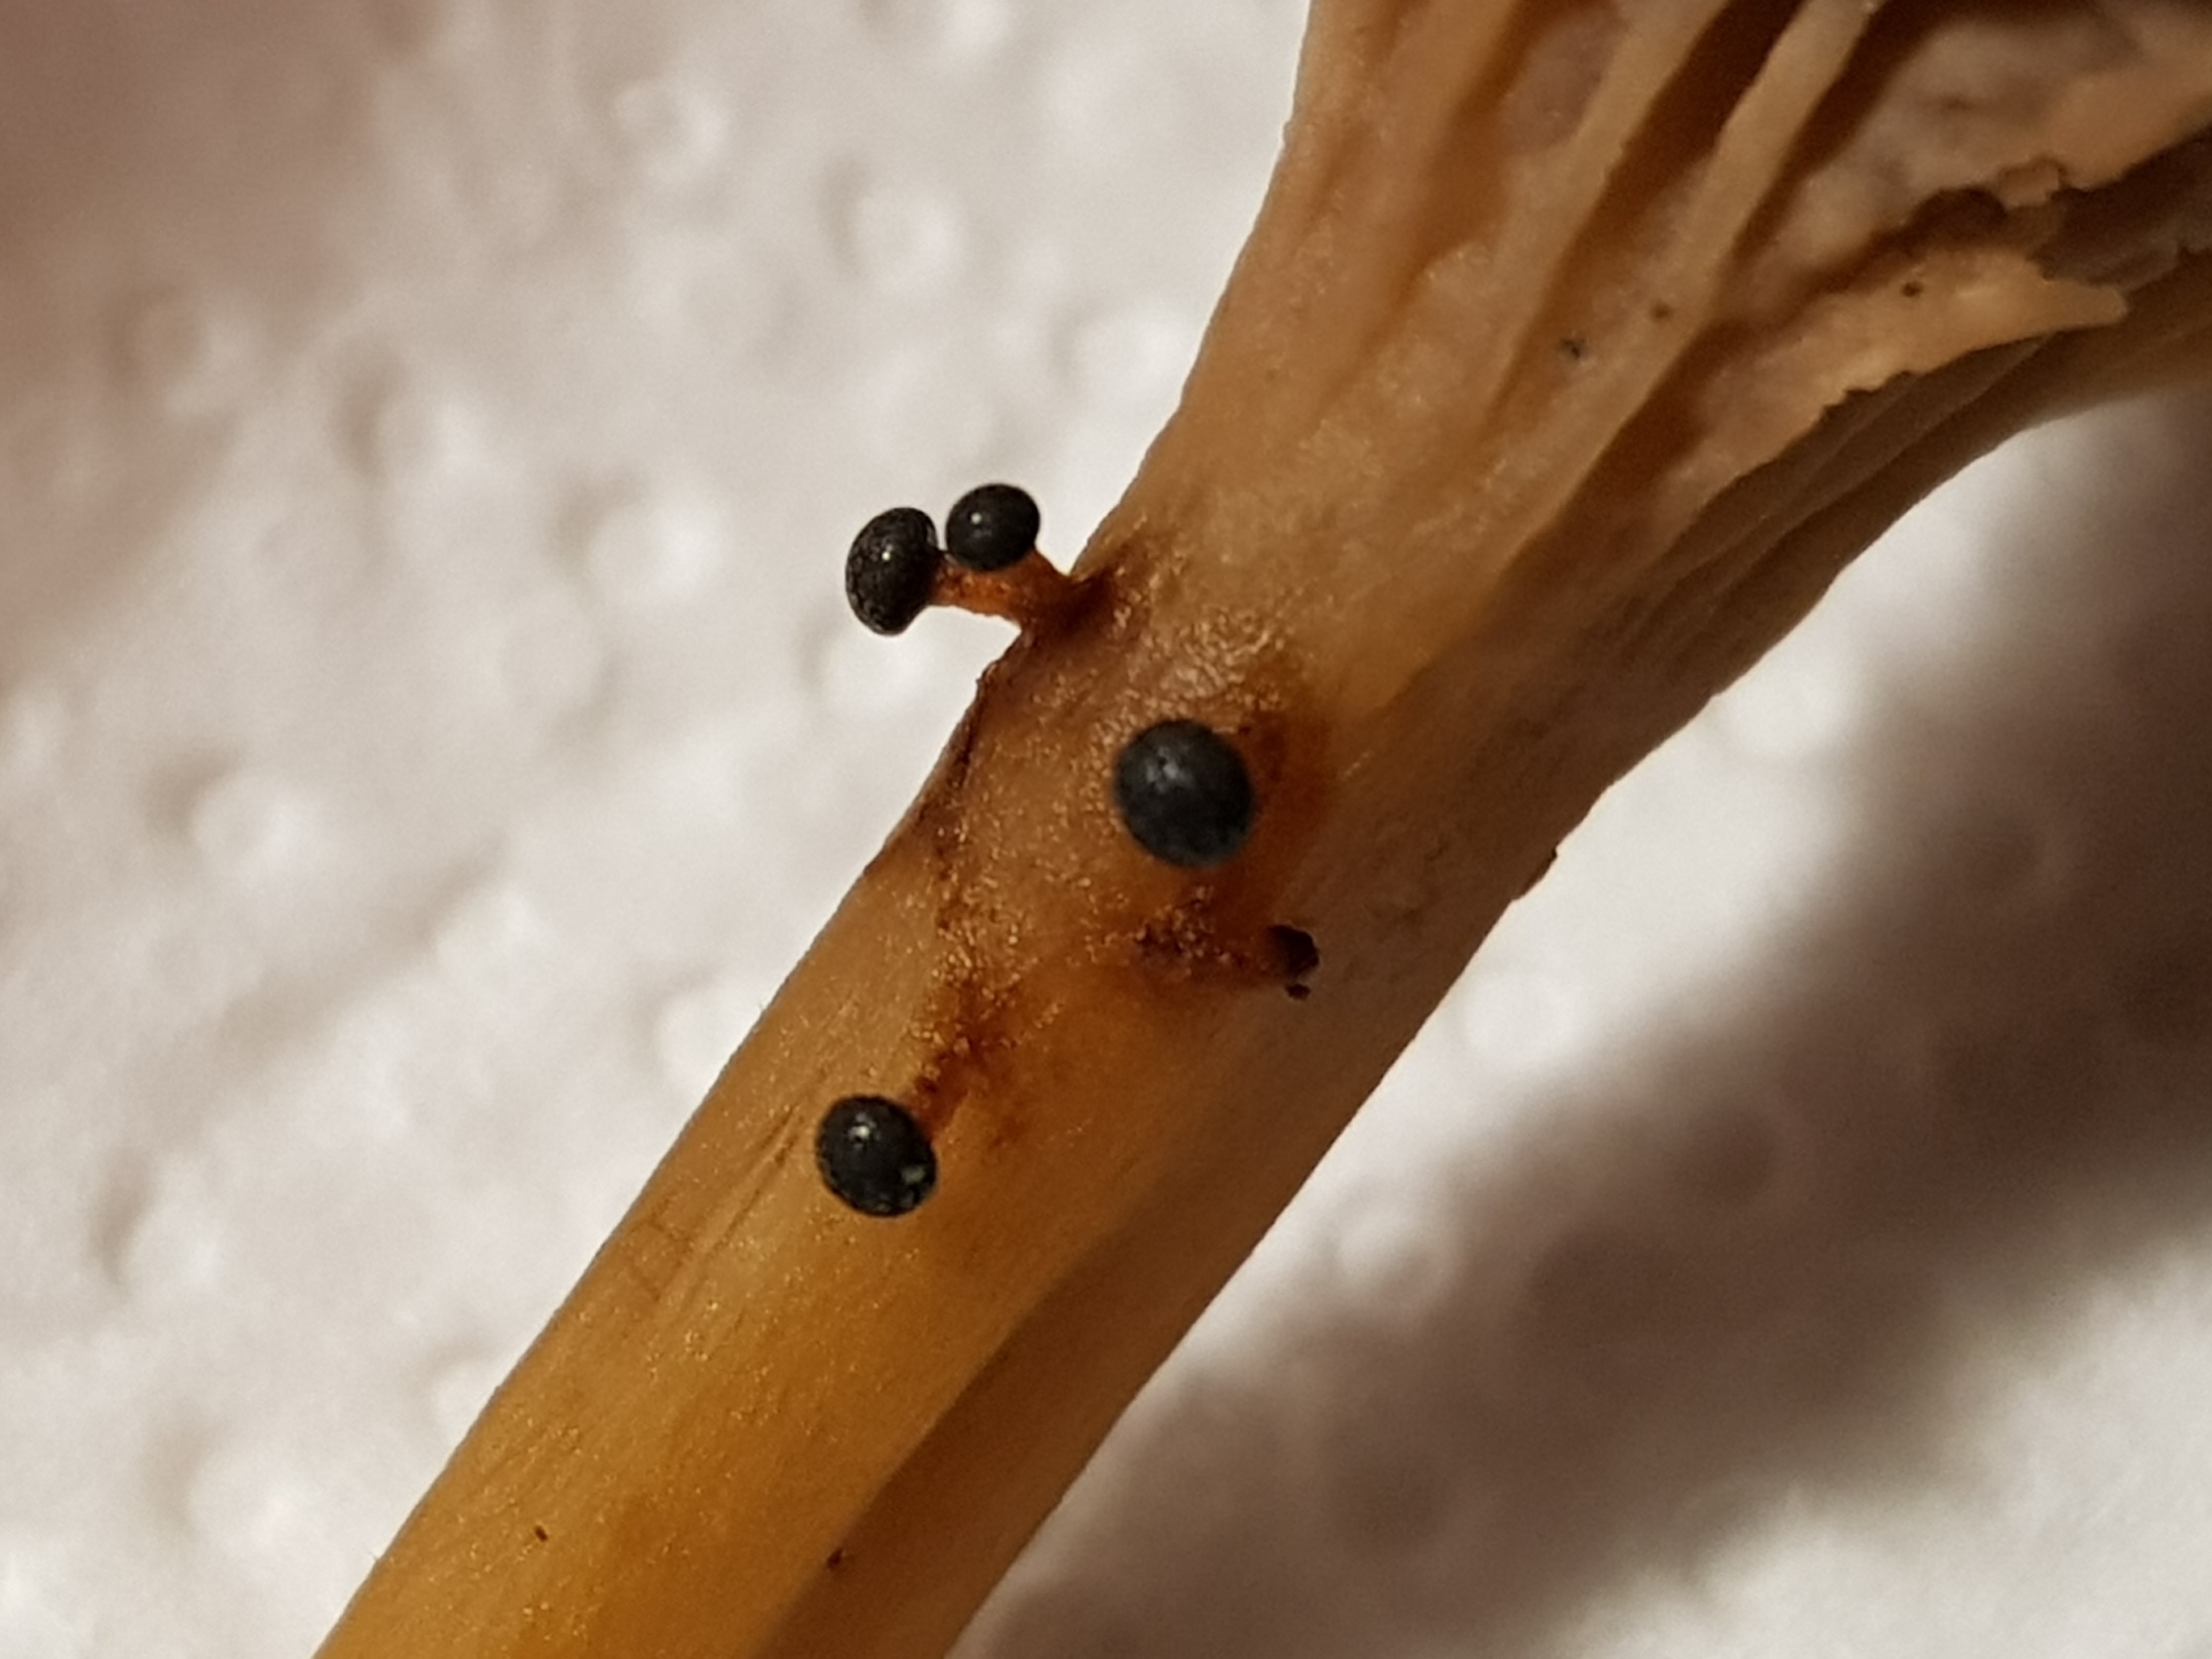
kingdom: Protozoa
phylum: Mycetozoa
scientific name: Mycetozoa
